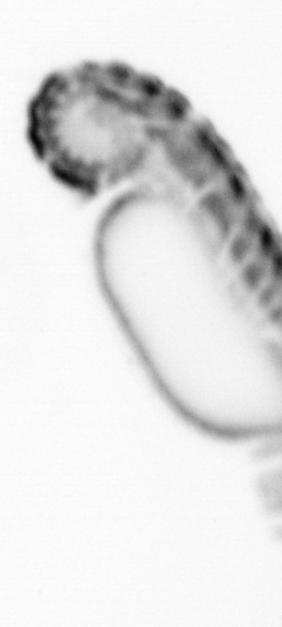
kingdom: Animalia
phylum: Annelida
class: Polychaeta
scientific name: Polychaeta
